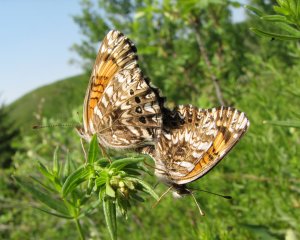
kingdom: Animalia
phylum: Arthropoda
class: Insecta
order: Lepidoptera
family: Nymphalidae
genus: Chlosyne
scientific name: Chlosyne gorgone
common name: Gorgone Checkerspot
